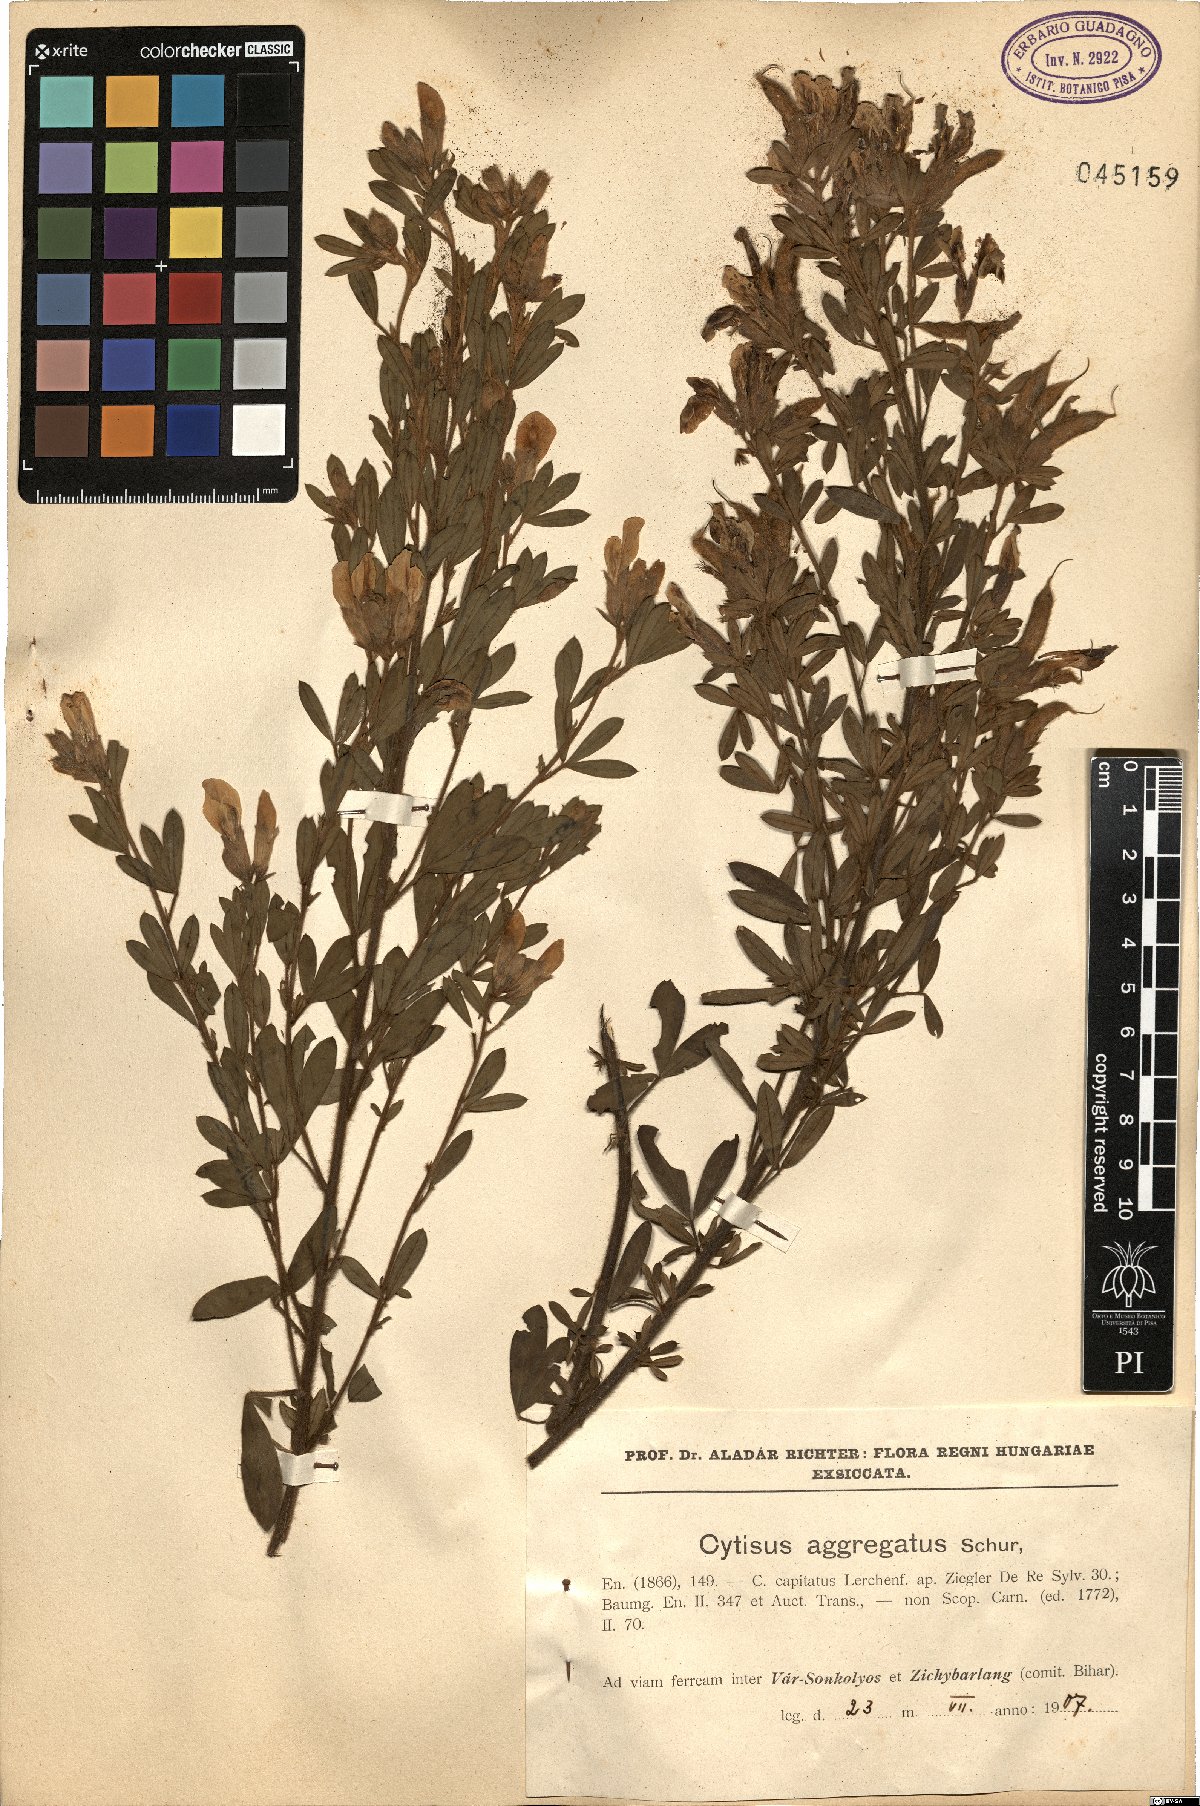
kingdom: Plantae
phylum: Tracheophyta
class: Magnoliopsida
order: Fabales
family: Fabaceae
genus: Chamaecytisus
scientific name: Chamaecytisus supinus
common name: Clustered broom
